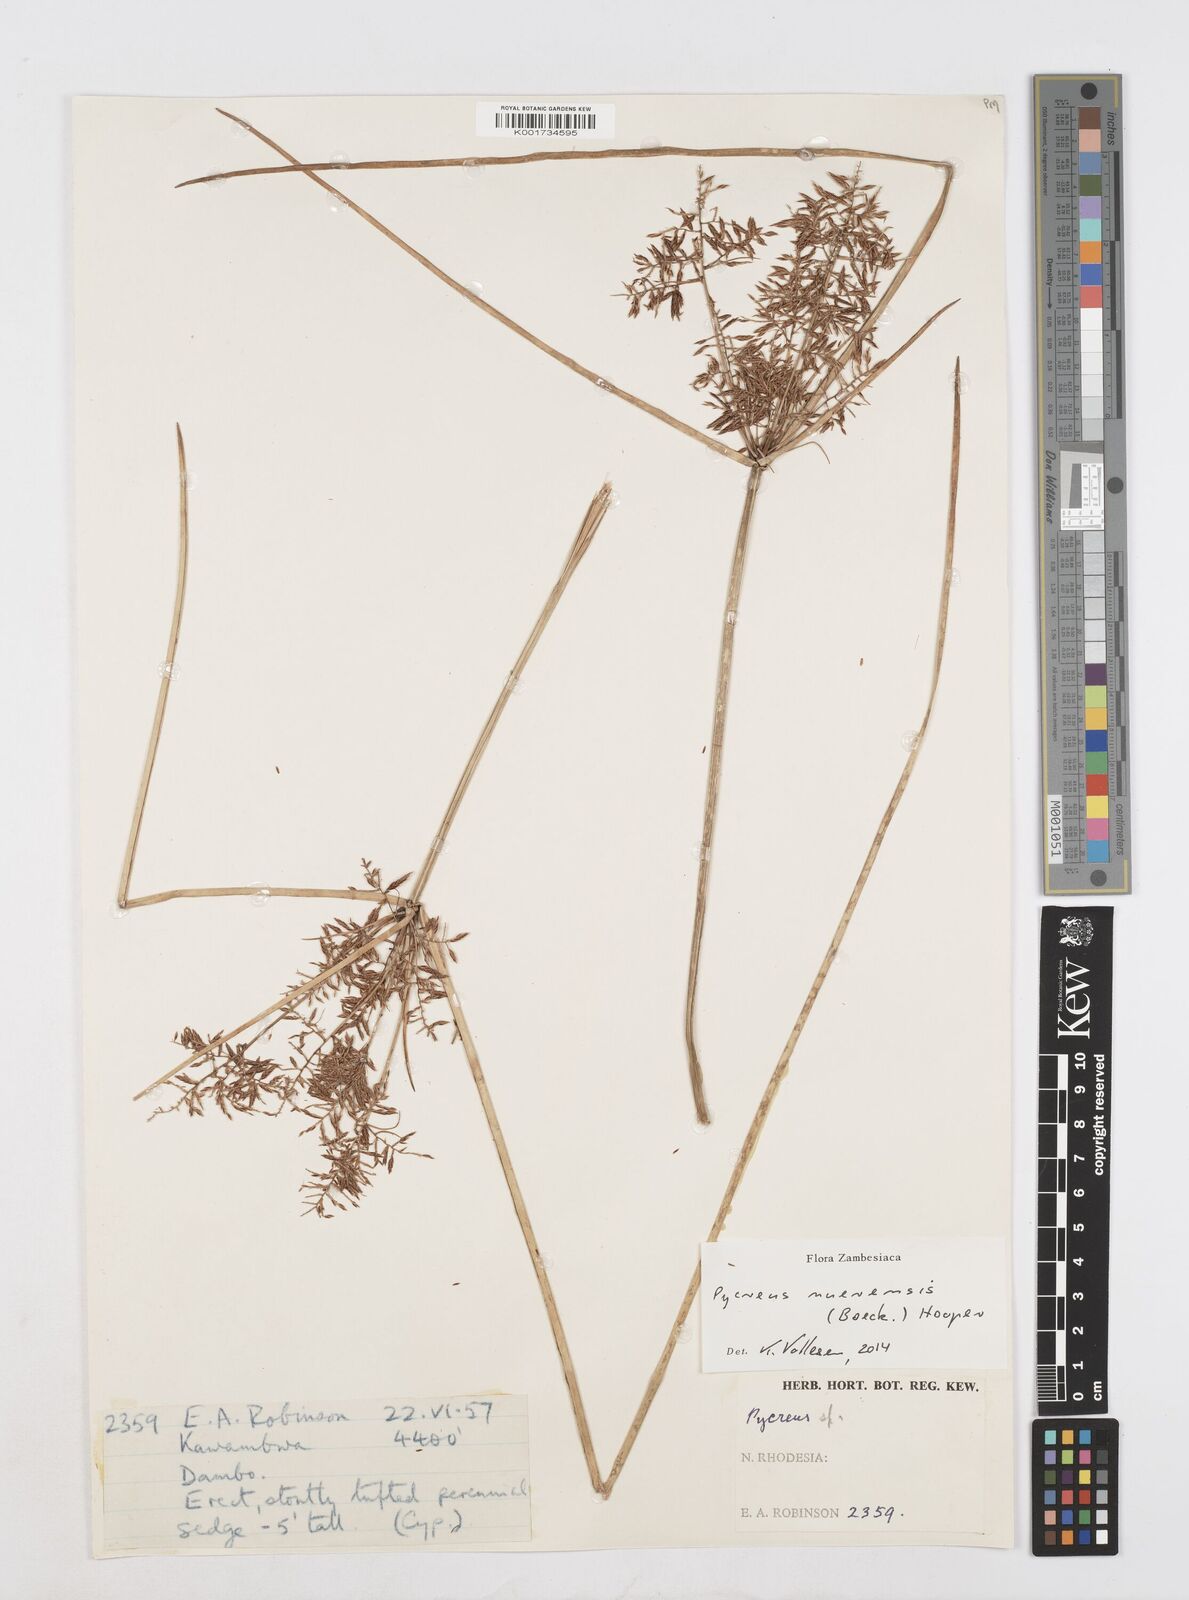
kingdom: Plantae
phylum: Tracheophyta
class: Liliopsida
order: Poales
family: Cyperaceae
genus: Cyperus
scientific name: Cyperus nuerensis
